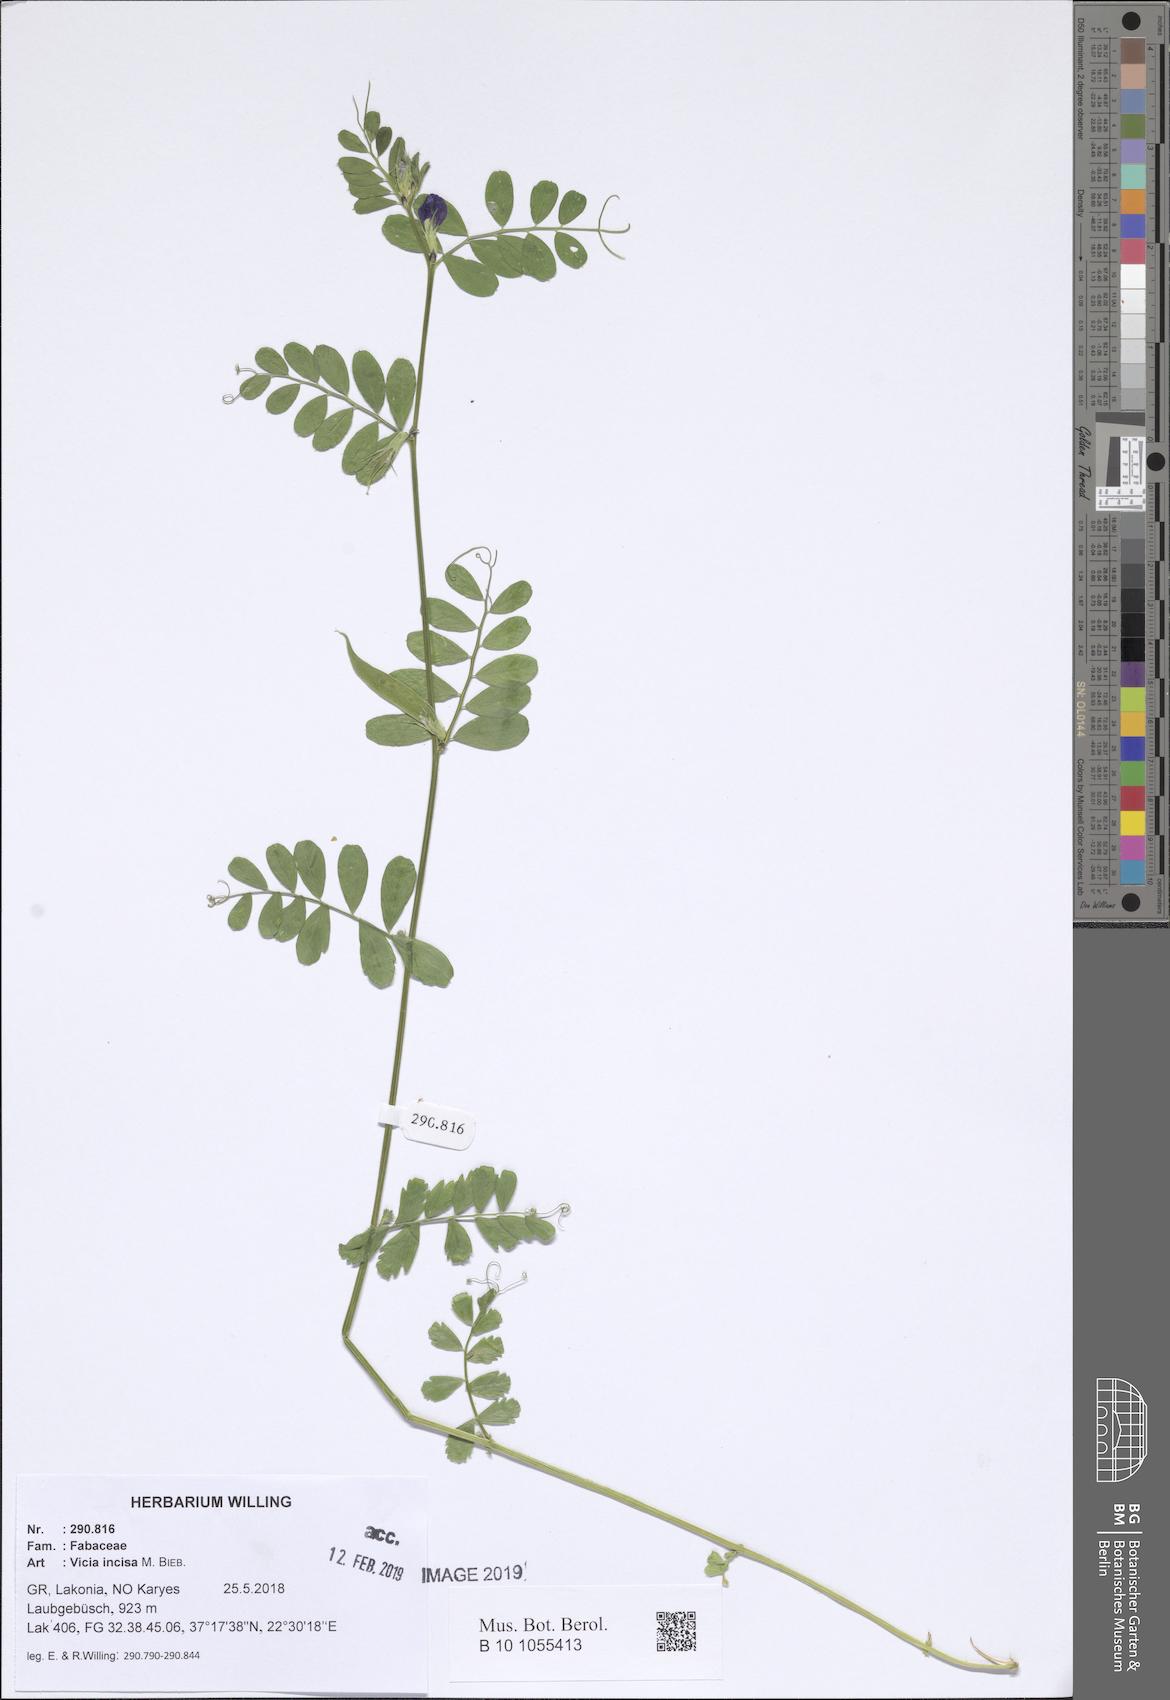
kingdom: Plantae
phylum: Tracheophyta
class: Magnoliopsida
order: Fabales
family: Fabaceae
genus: Vicia
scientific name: Vicia sativa
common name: Garden vetch
